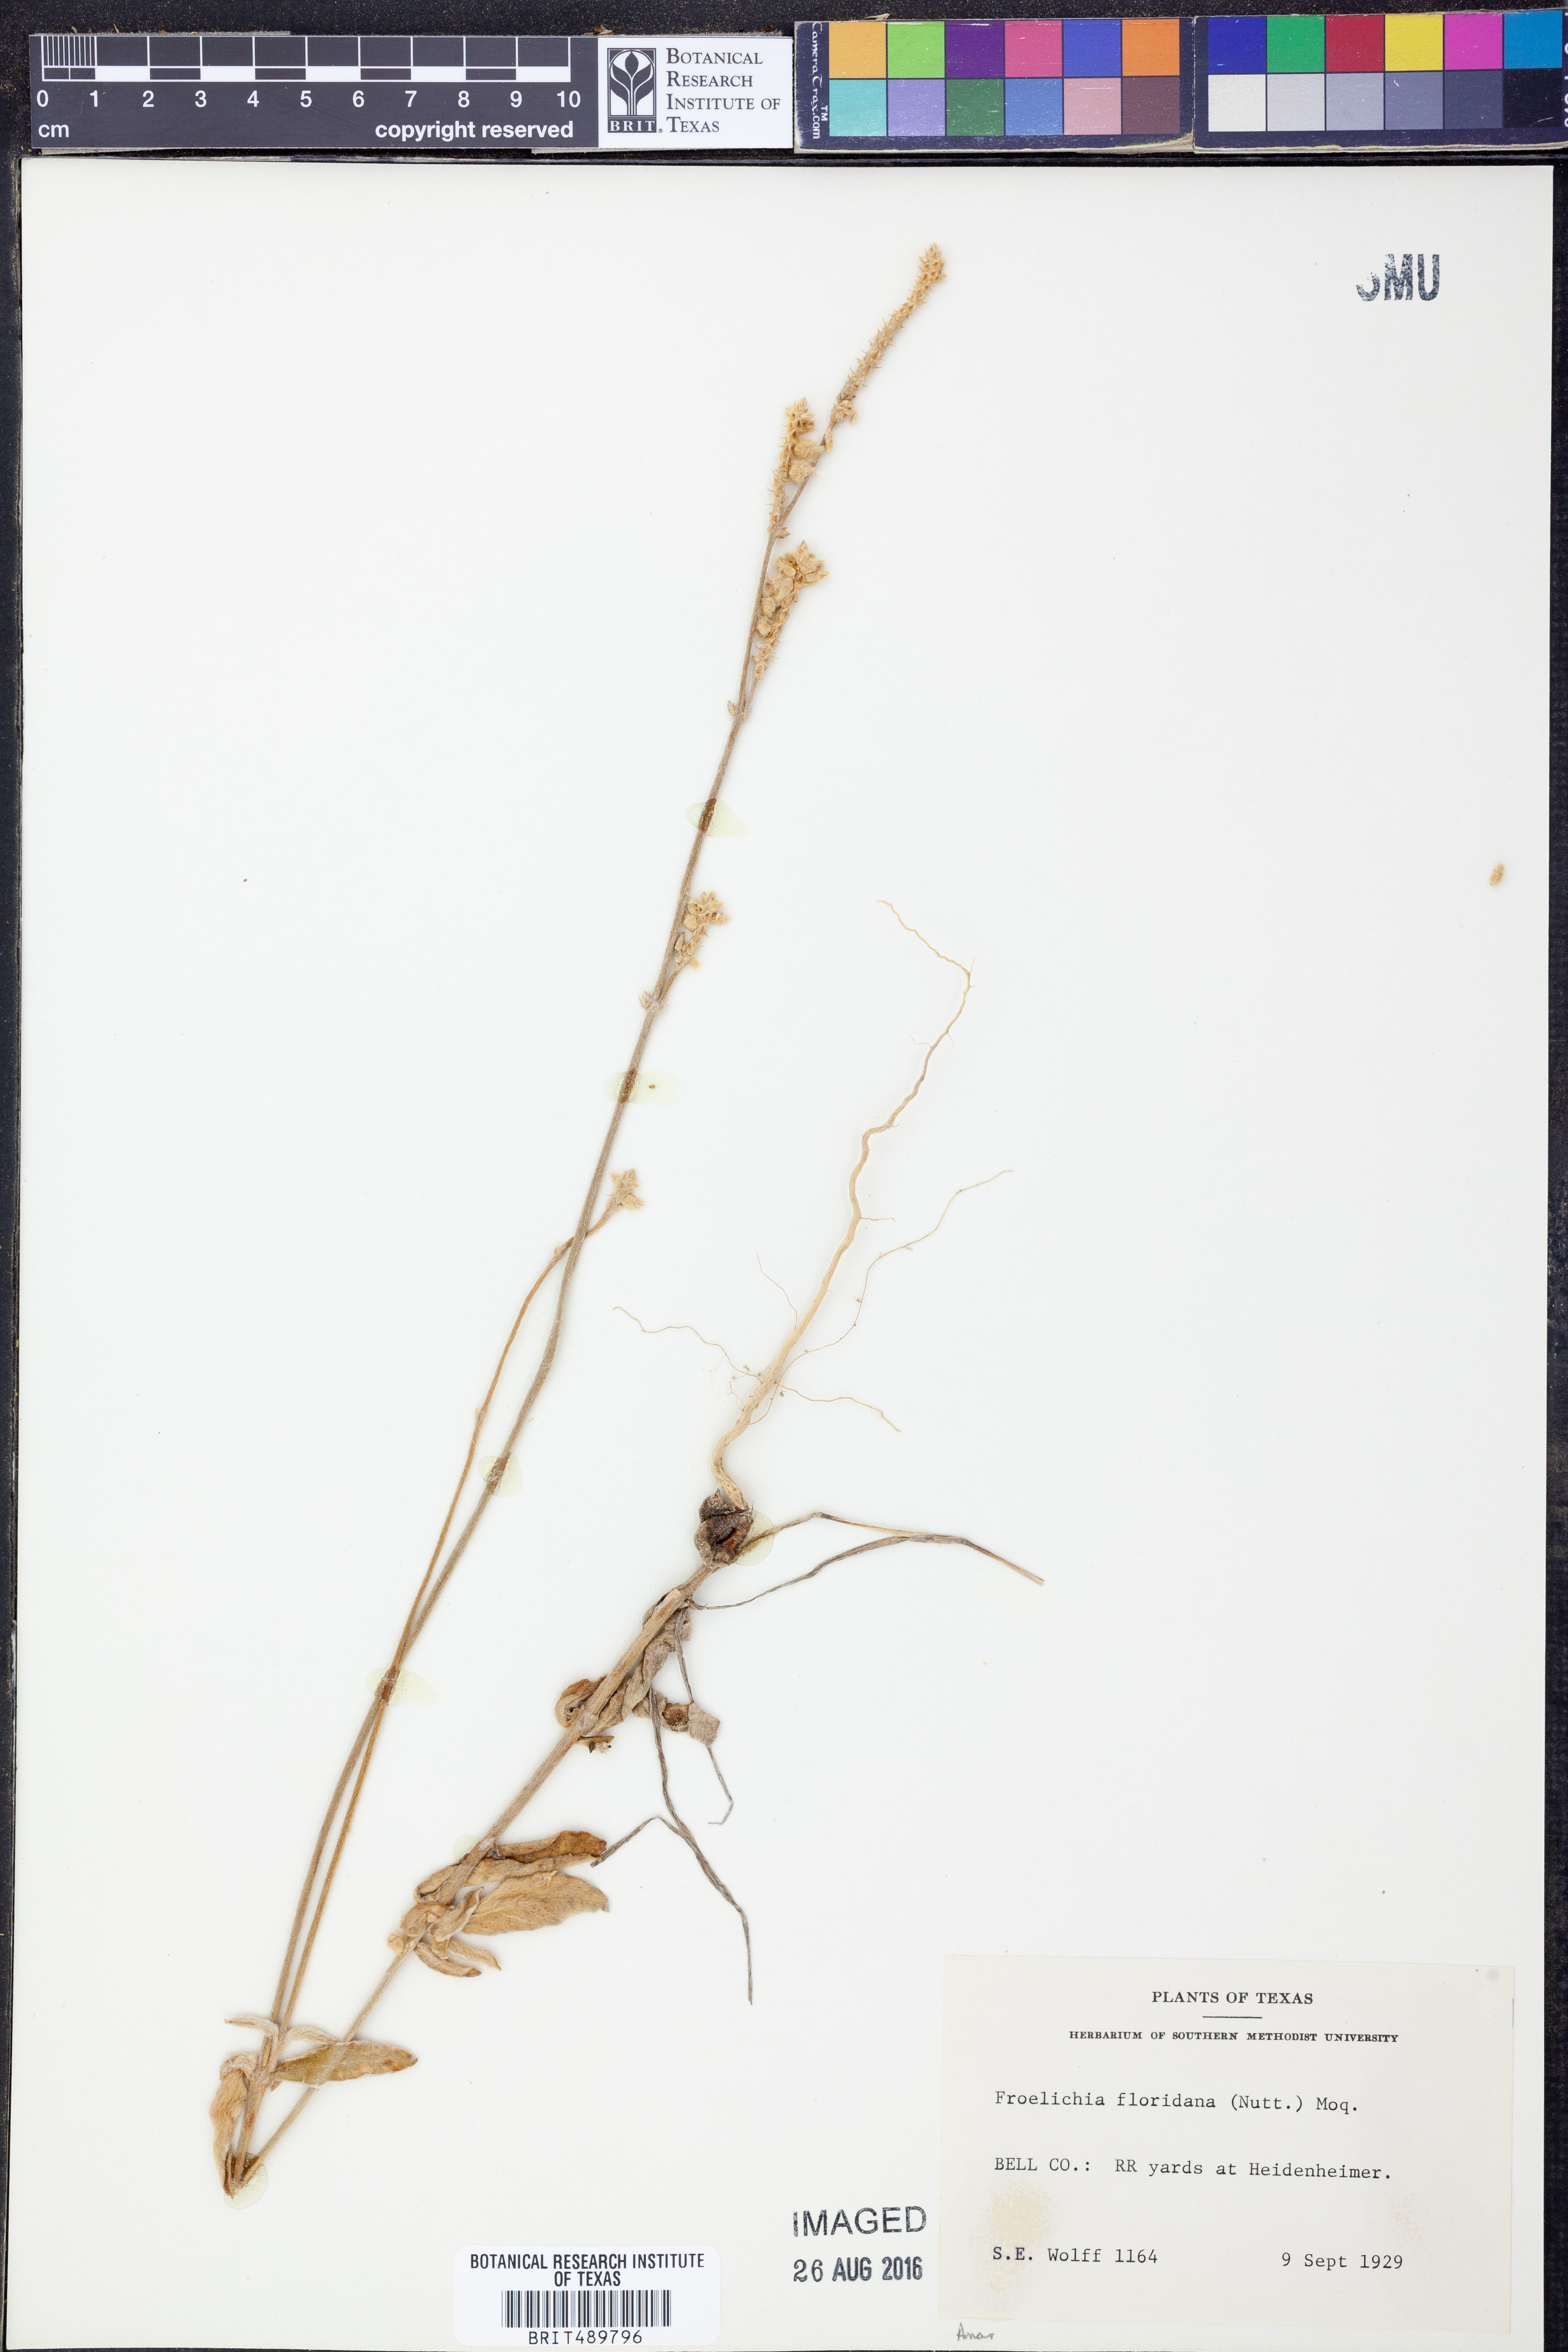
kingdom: Plantae
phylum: Tracheophyta
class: Magnoliopsida
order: Caryophyllales
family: Amaranthaceae
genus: Froelichia
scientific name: Froelichia floridana
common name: Florida snake-cotton
